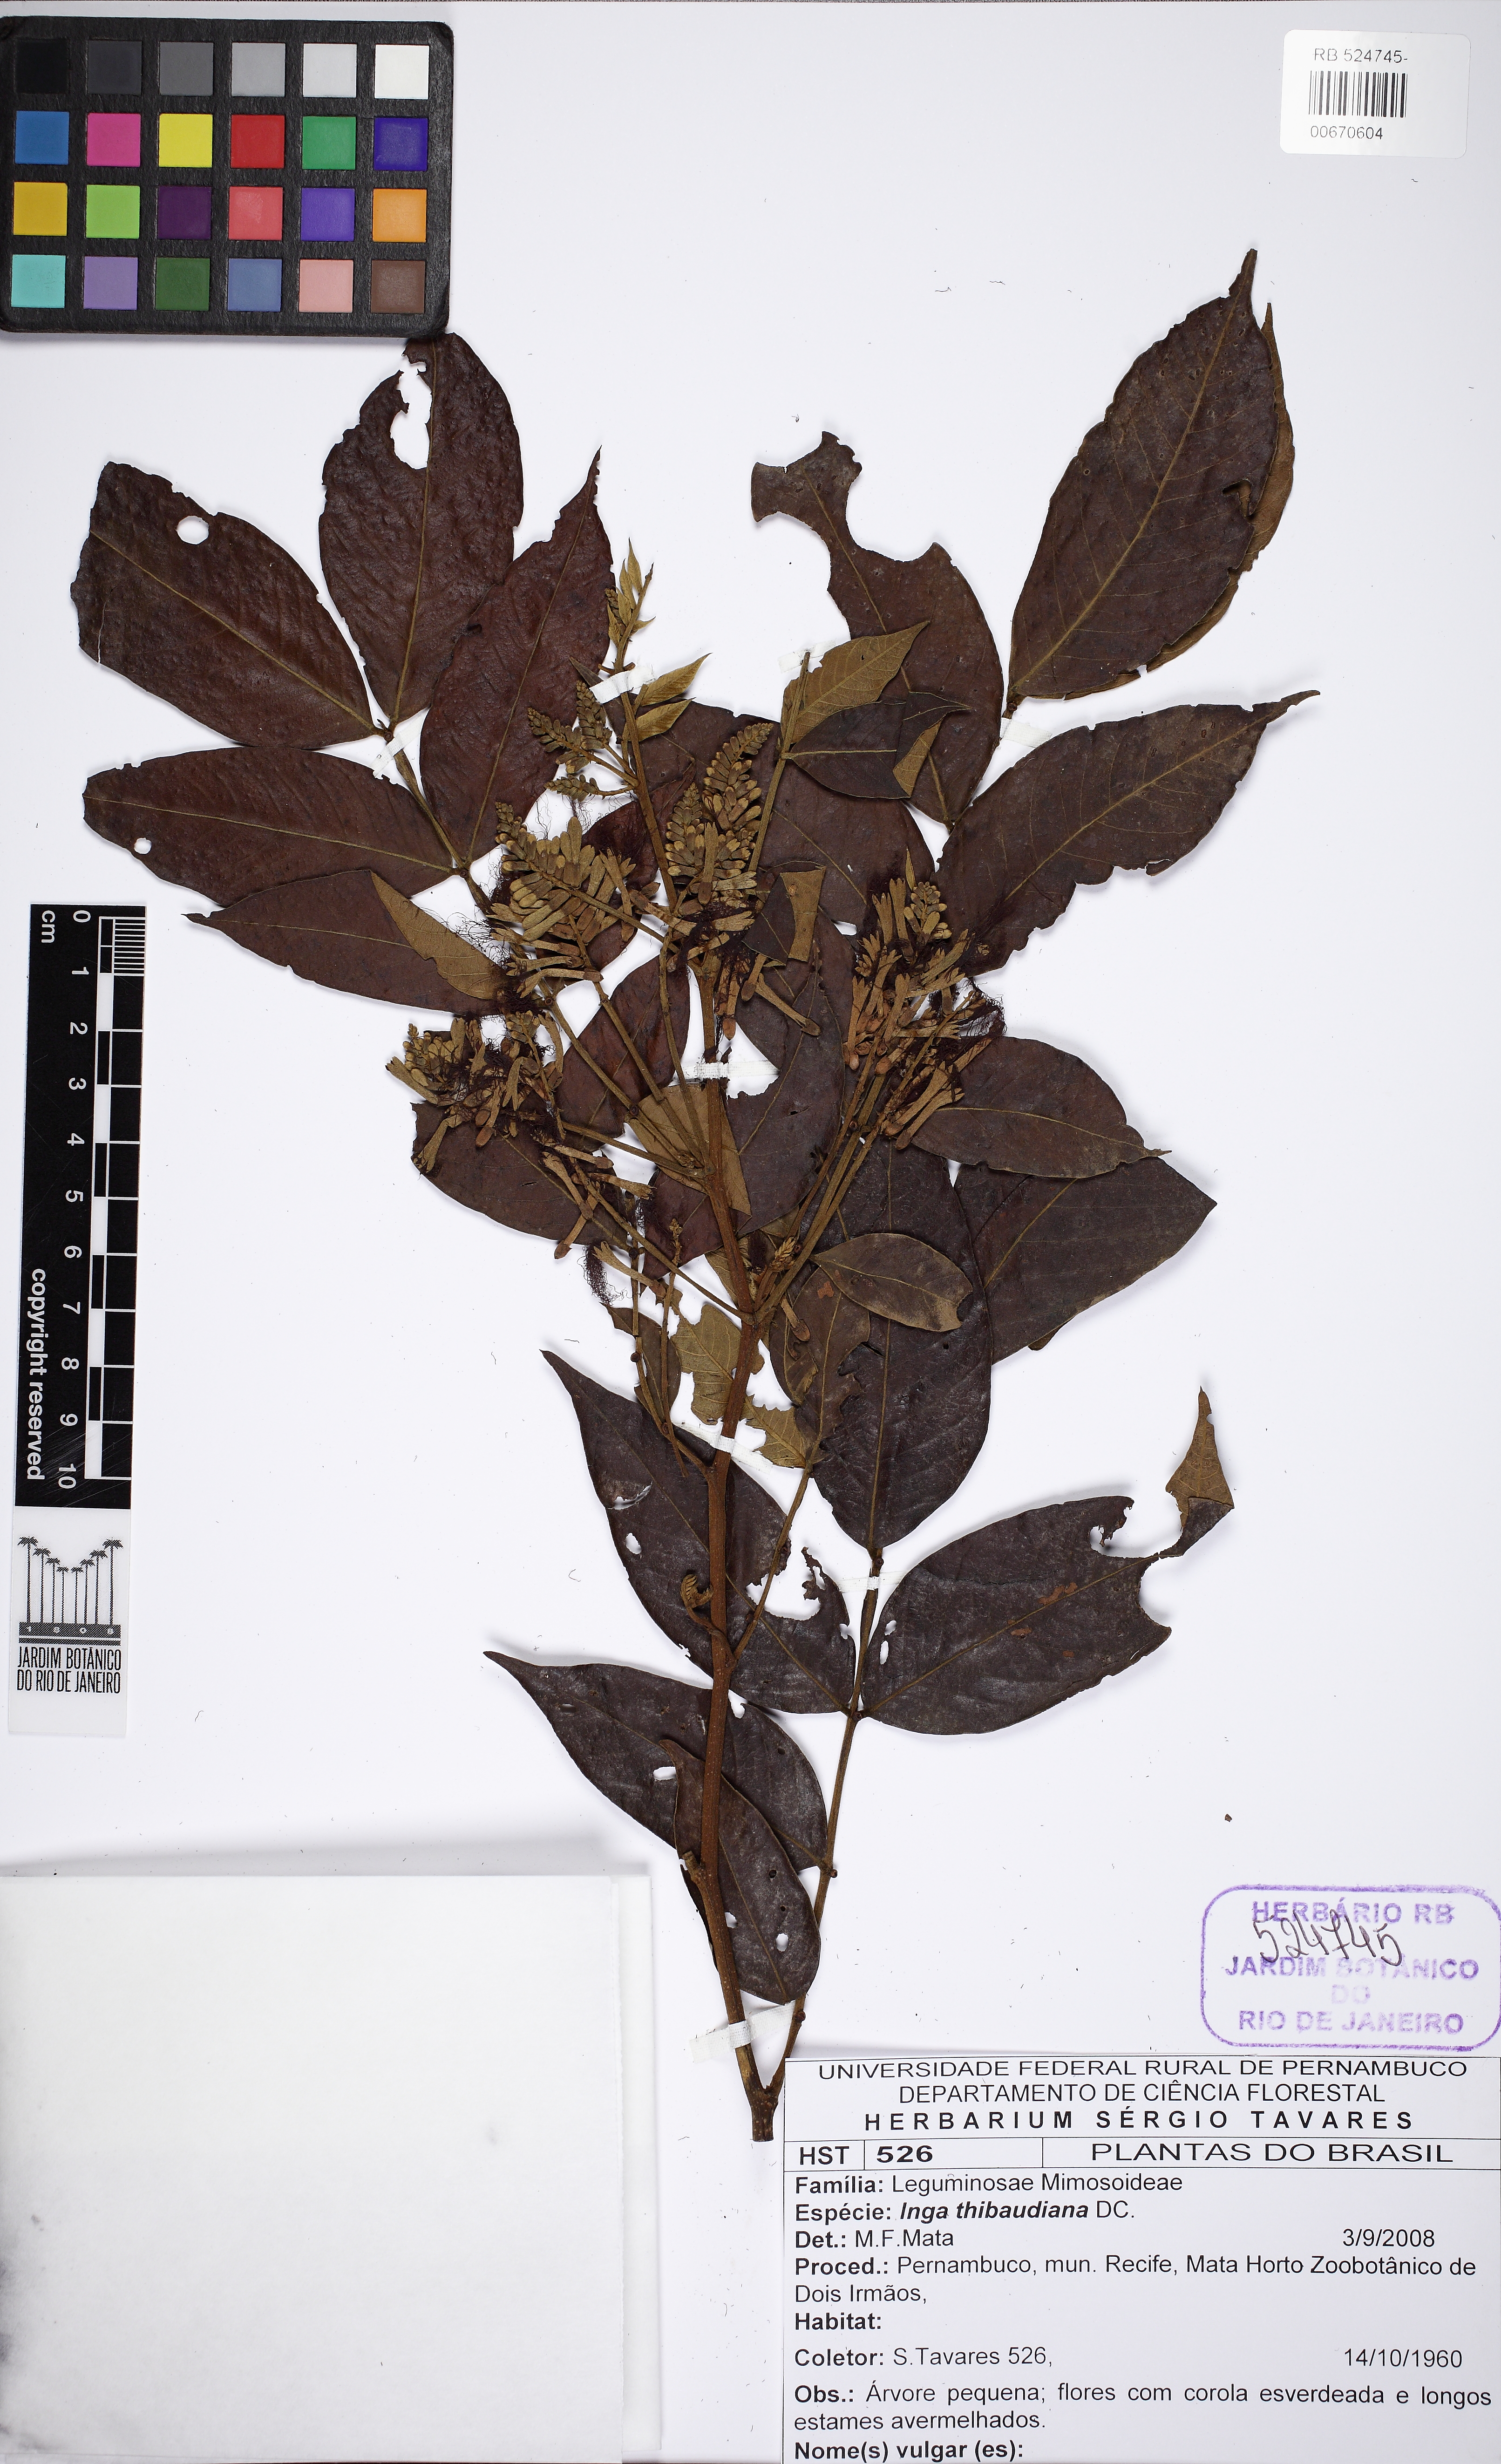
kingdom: Plantae
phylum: Tracheophyta
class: Magnoliopsida
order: Fabales
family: Fabaceae
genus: Inga
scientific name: Inga thibaudiana
